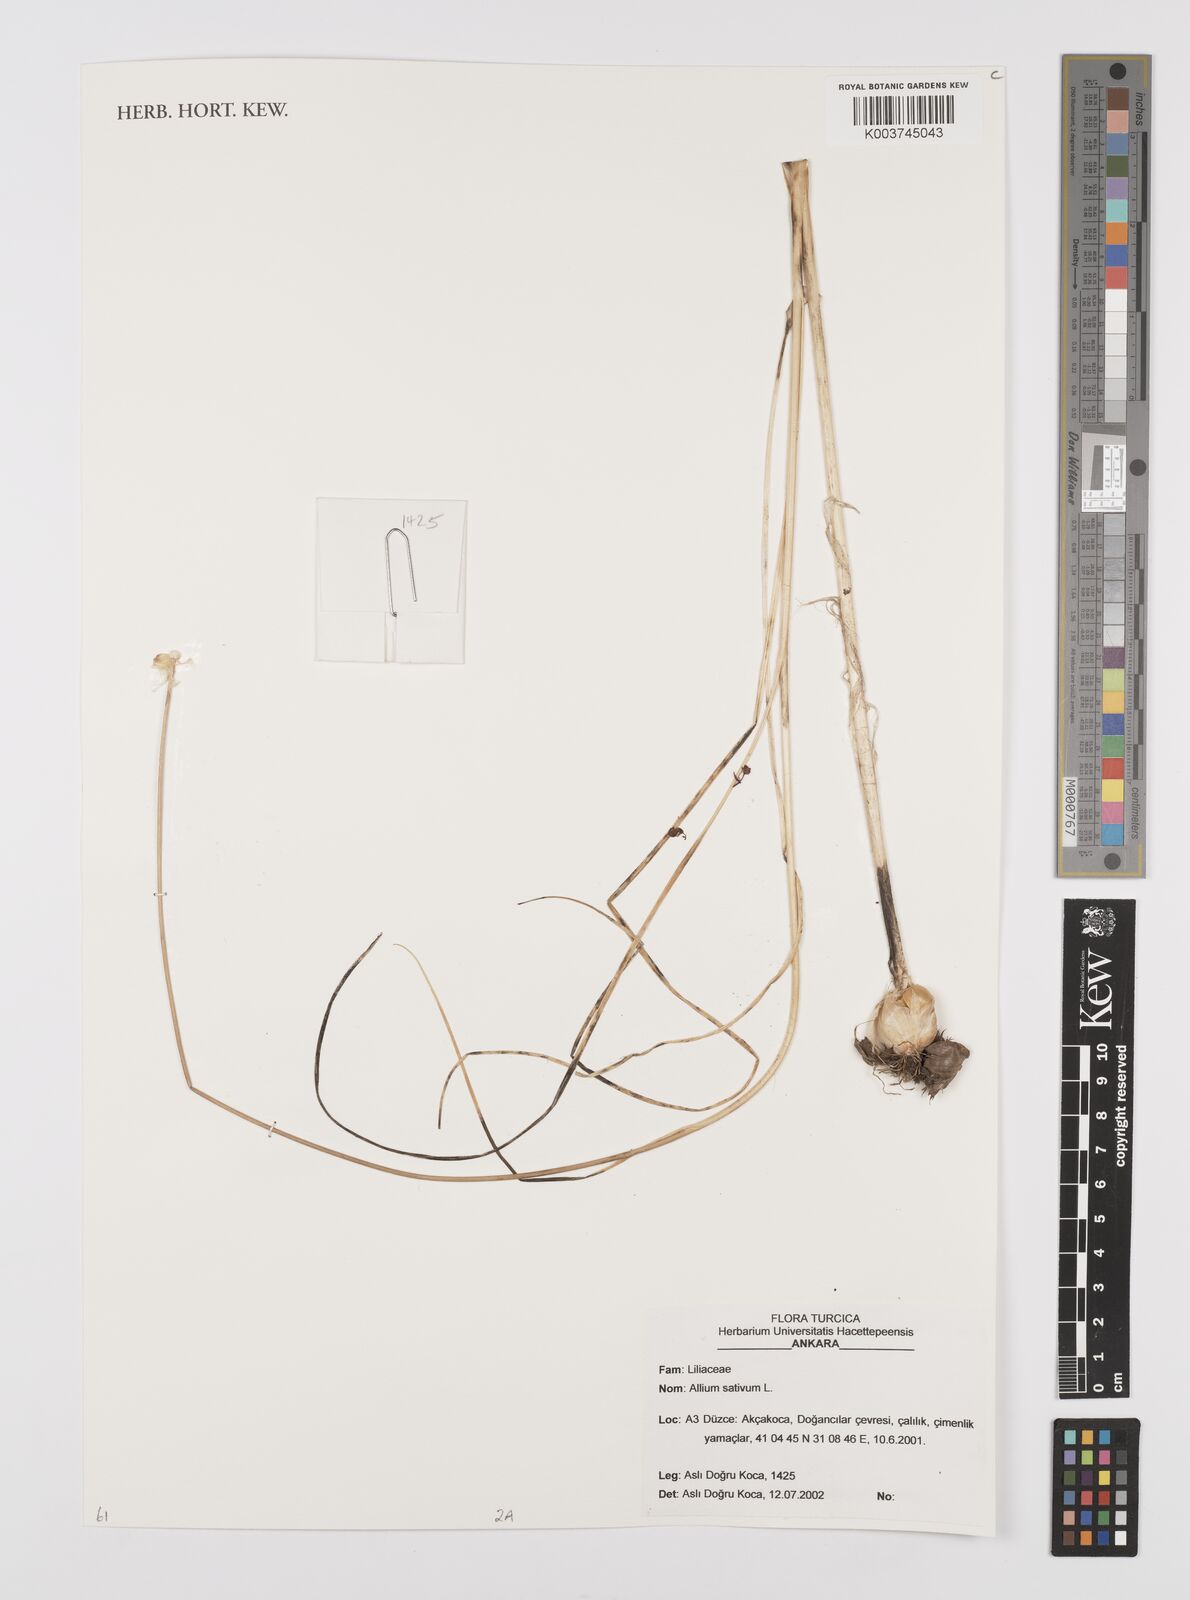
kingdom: Plantae
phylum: Tracheophyta
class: Liliopsida
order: Asparagales
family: Amaryllidaceae
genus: Allium
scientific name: Allium sativum
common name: Garlic
